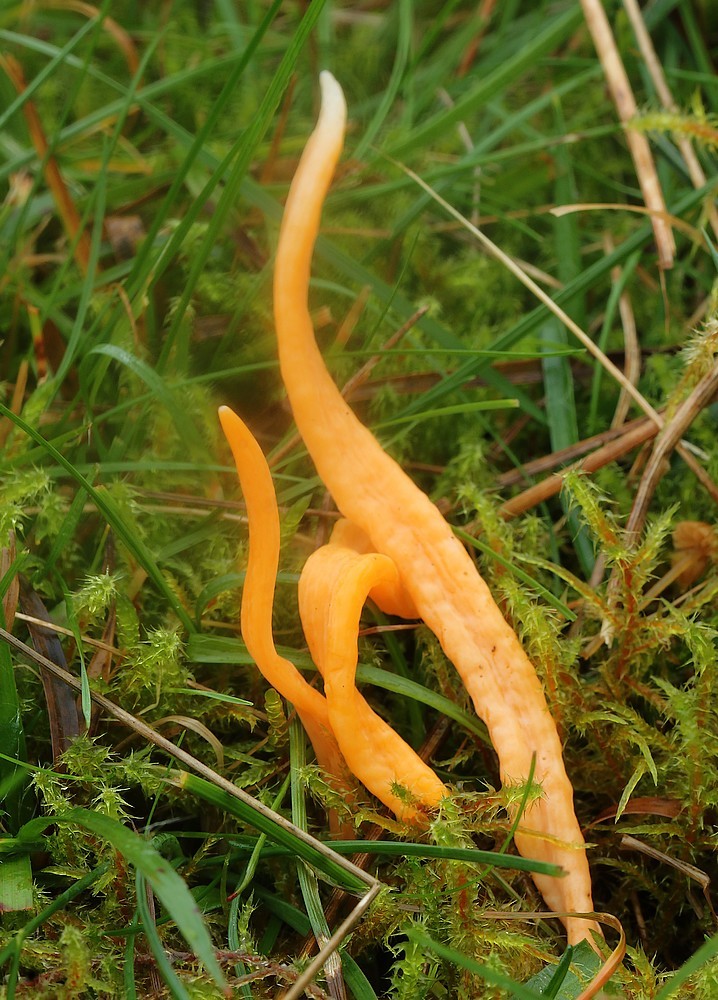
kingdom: Fungi
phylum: Basidiomycota
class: Agaricomycetes
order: Agaricales
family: Clavariaceae
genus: Clavulinopsis
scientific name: Clavulinopsis
